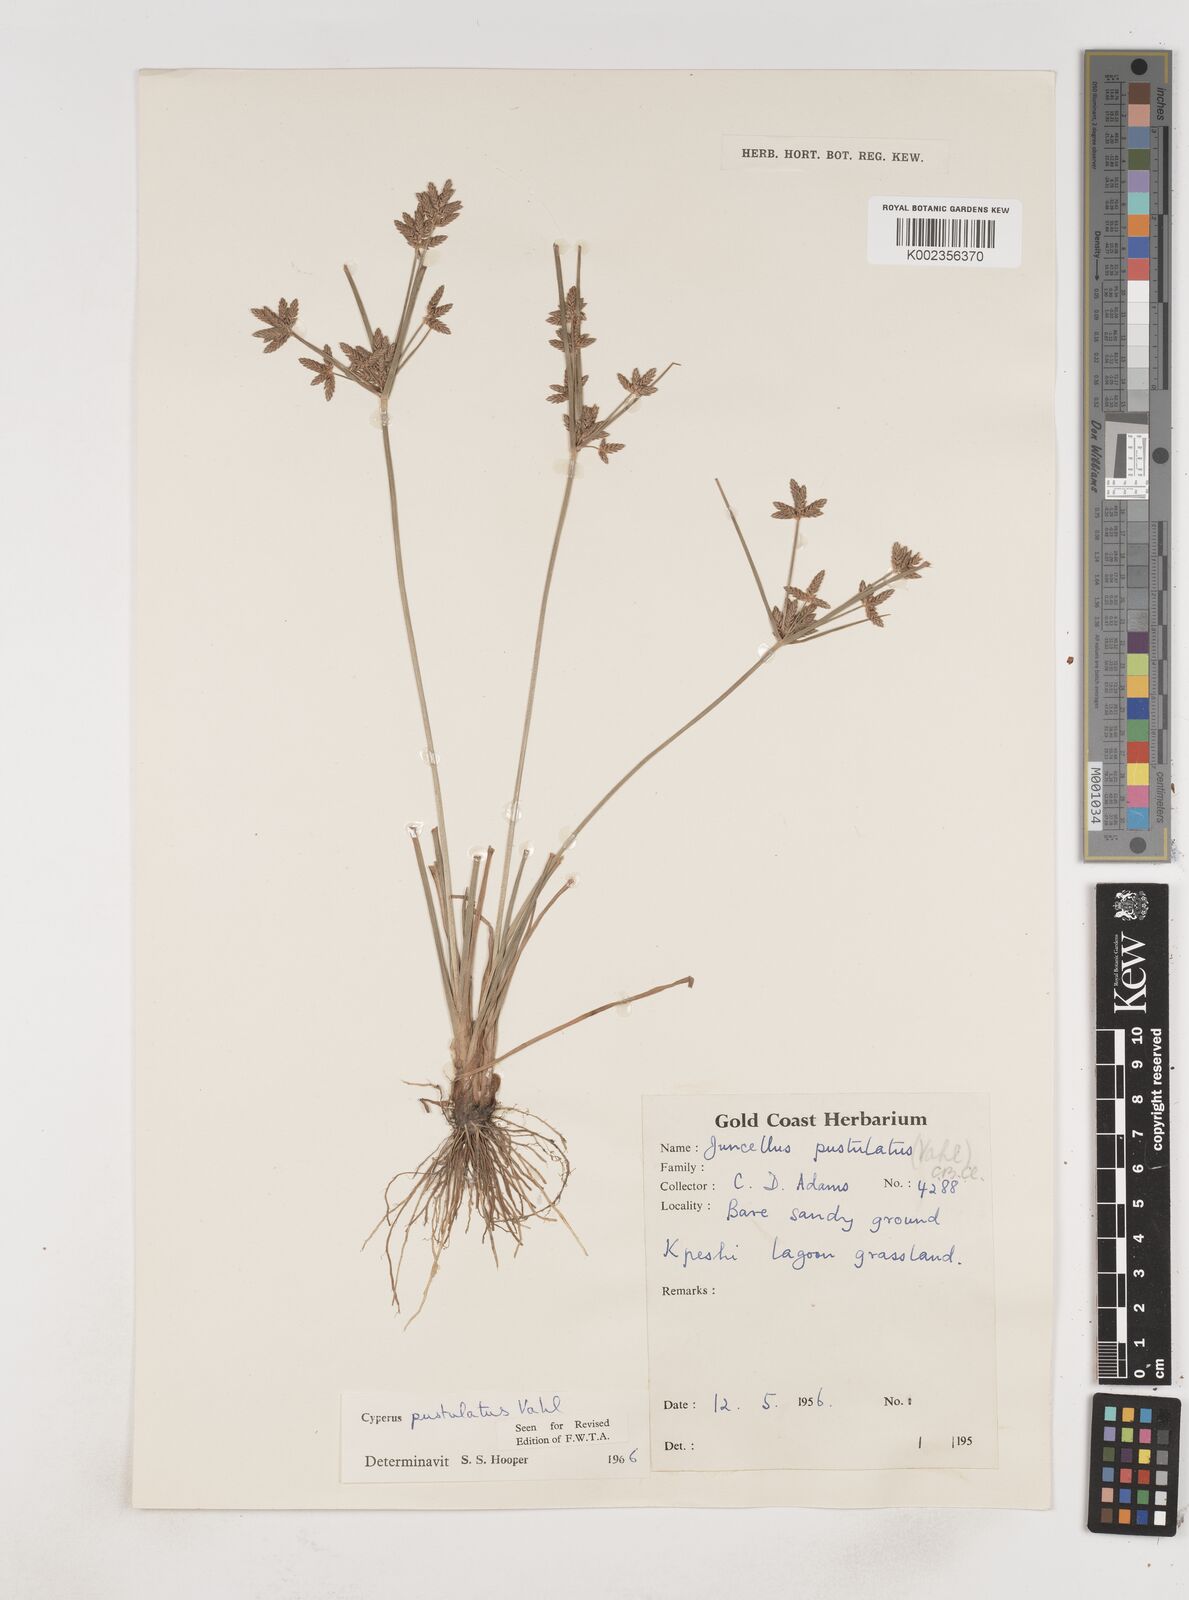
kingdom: Plantae
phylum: Tracheophyta
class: Liliopsida
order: Poales
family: Cyperaceae
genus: Cyperus
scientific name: Cyperus pustulatus
